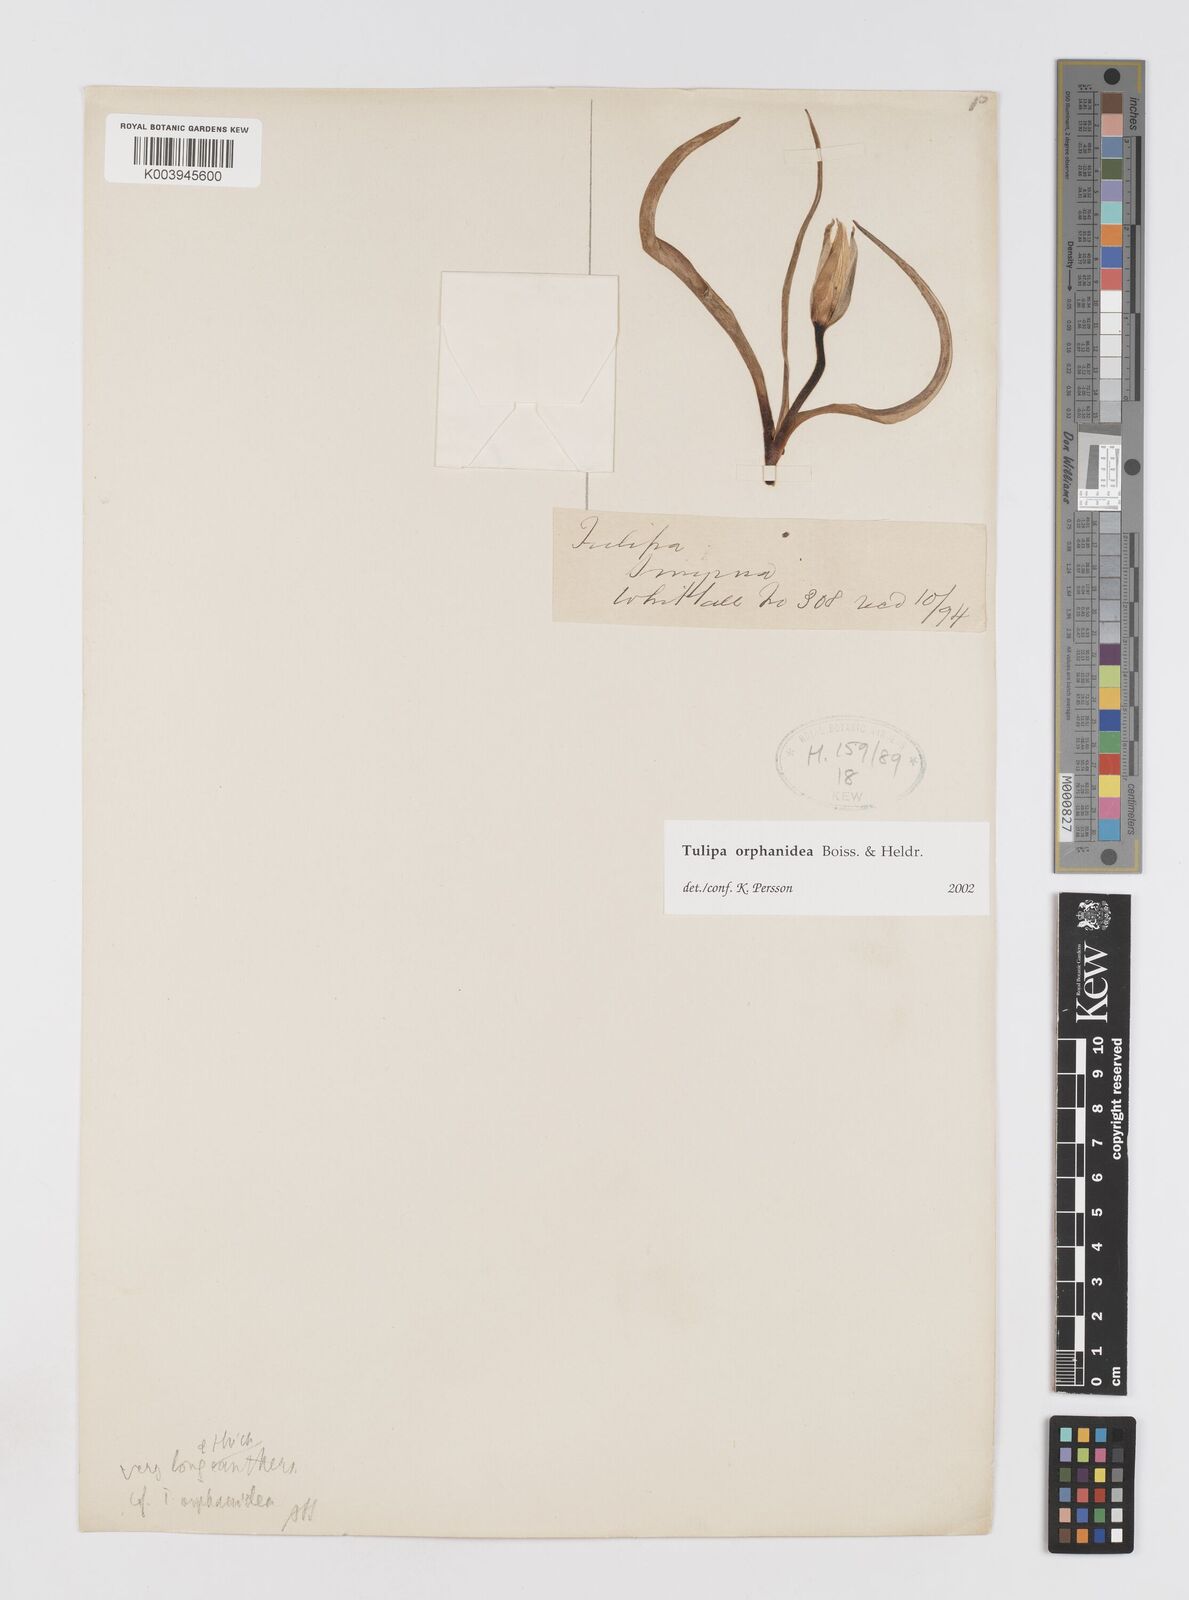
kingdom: Plantae
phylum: Tracheophyta
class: Liliopsida
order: Liliales
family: Liliaceae
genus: Tulipa
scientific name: Tulipa orphanidea
